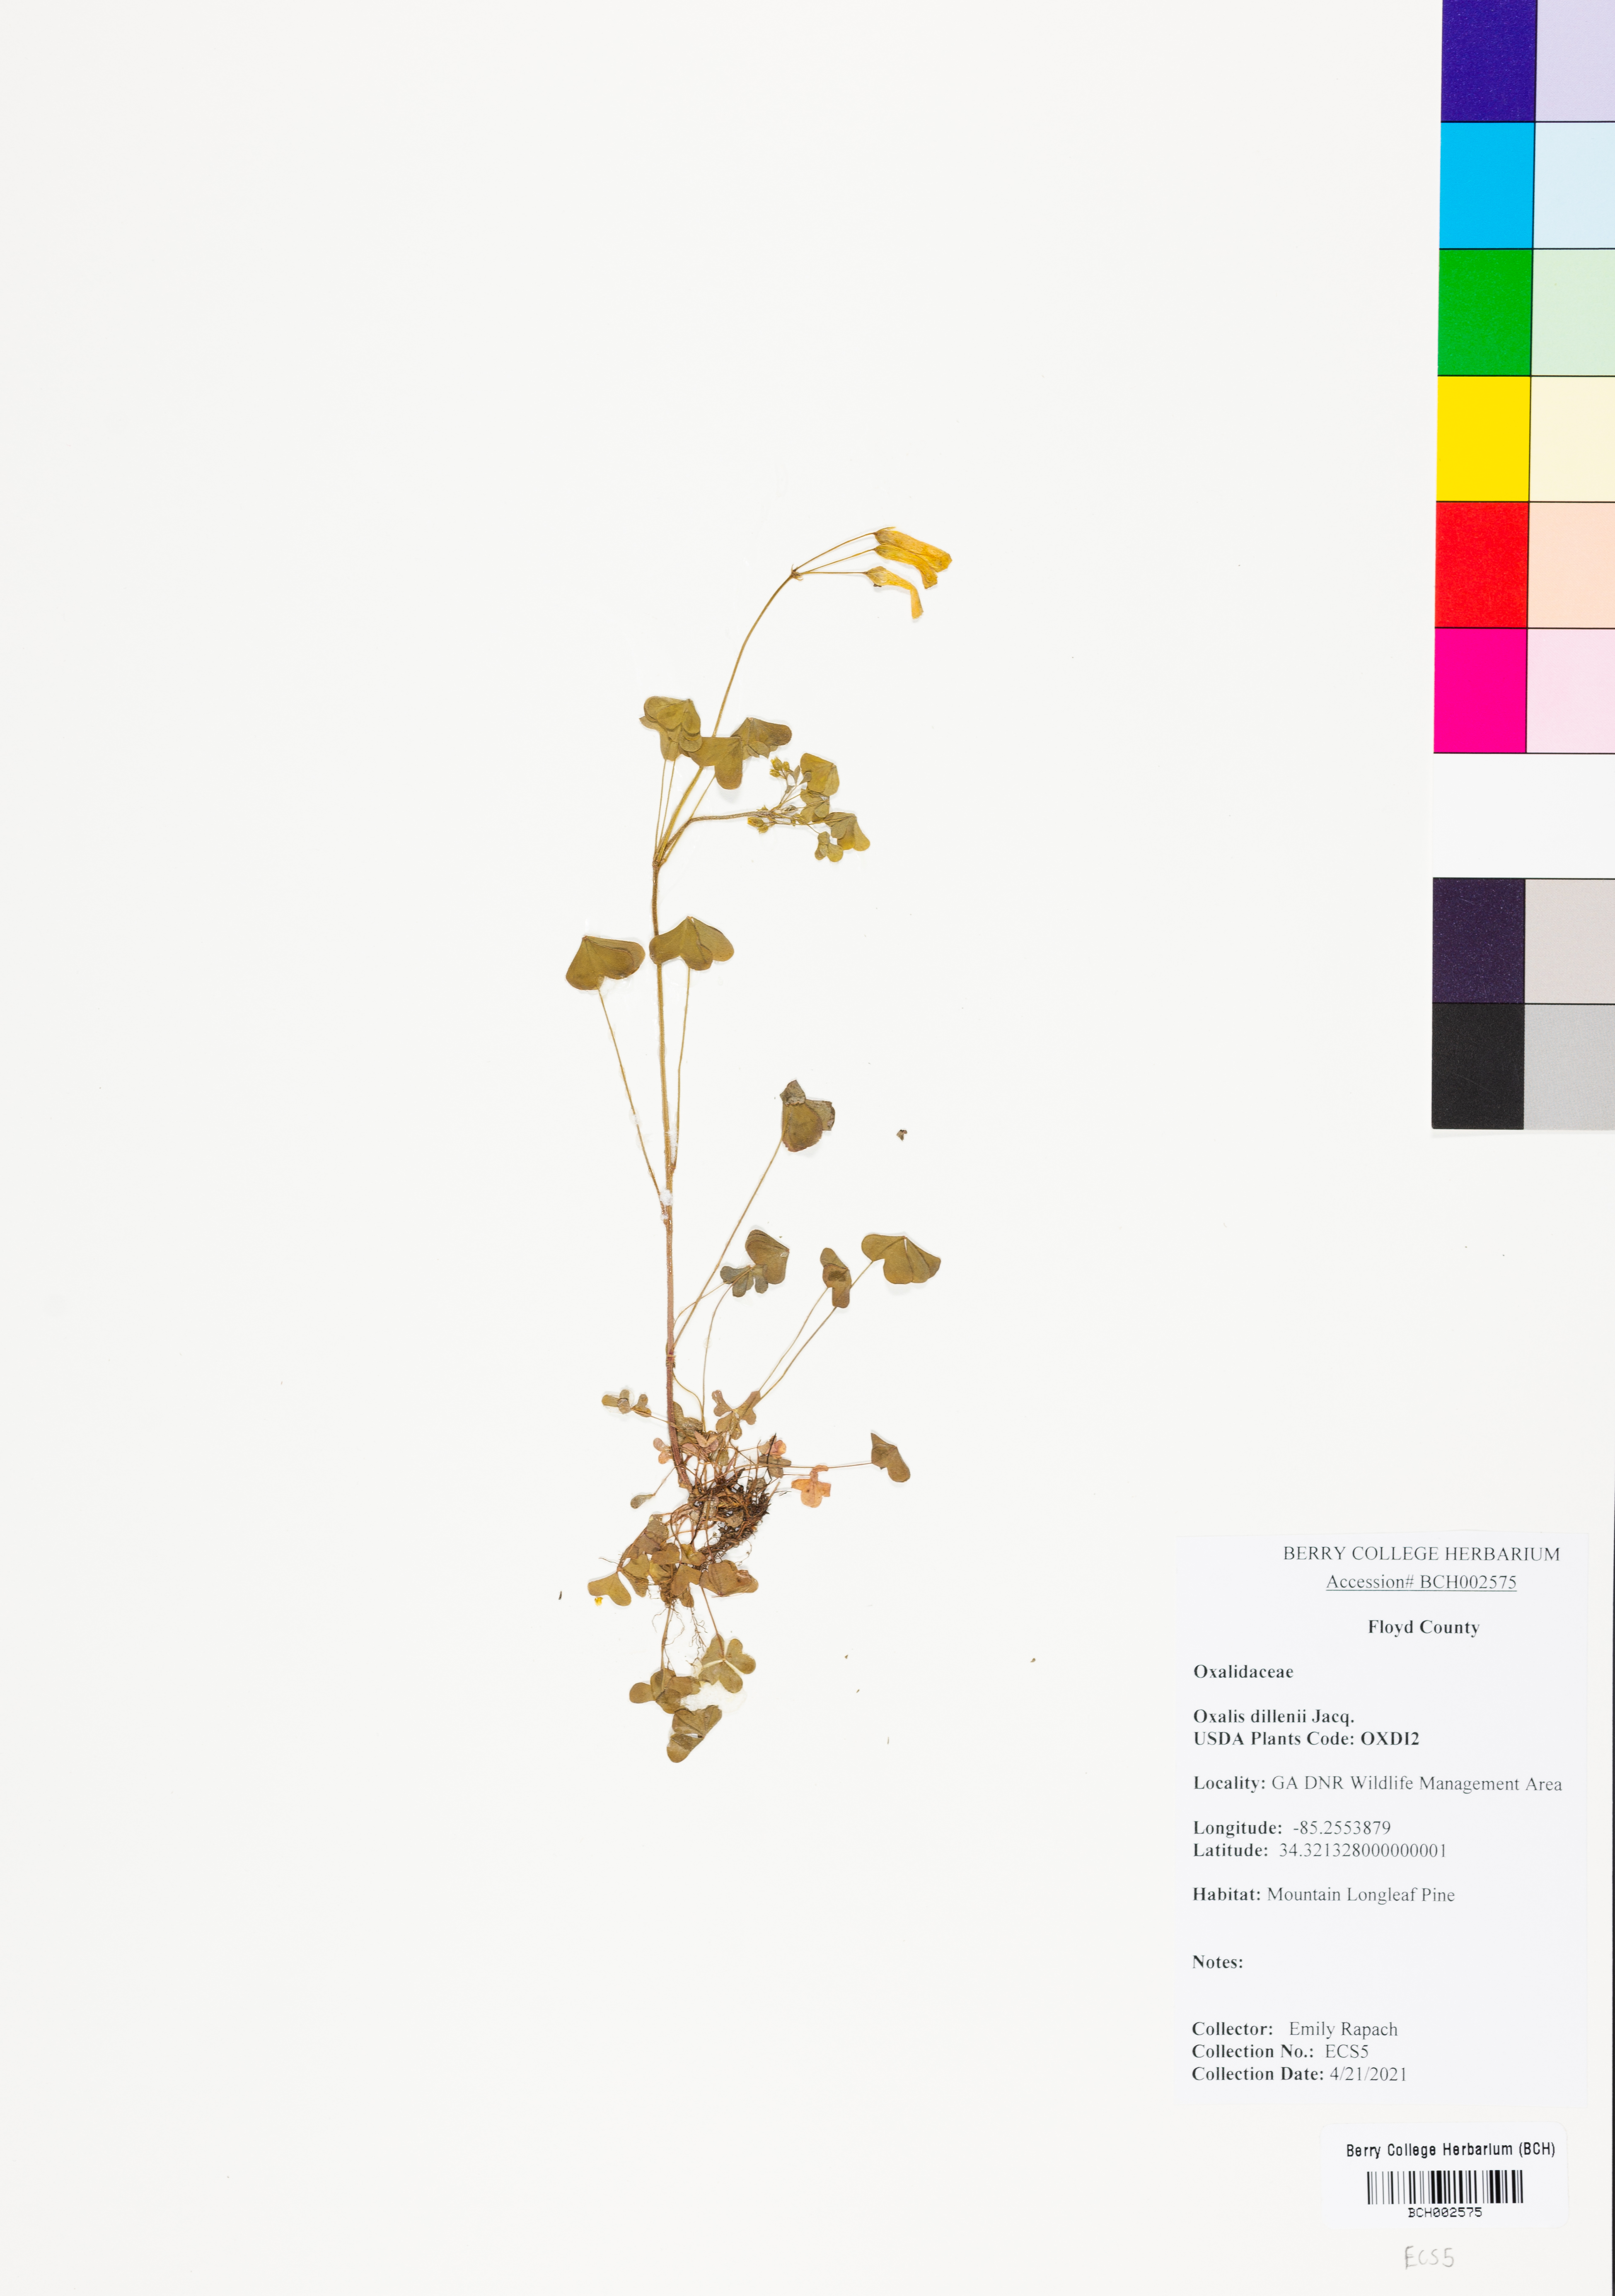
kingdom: Plantae
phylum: Tracheophyta
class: Magnoliopsida
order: Oxalidales
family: Oxalidaceae
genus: Oxalis
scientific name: Oxalis dillenii
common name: Sussex yellow-sorrel
